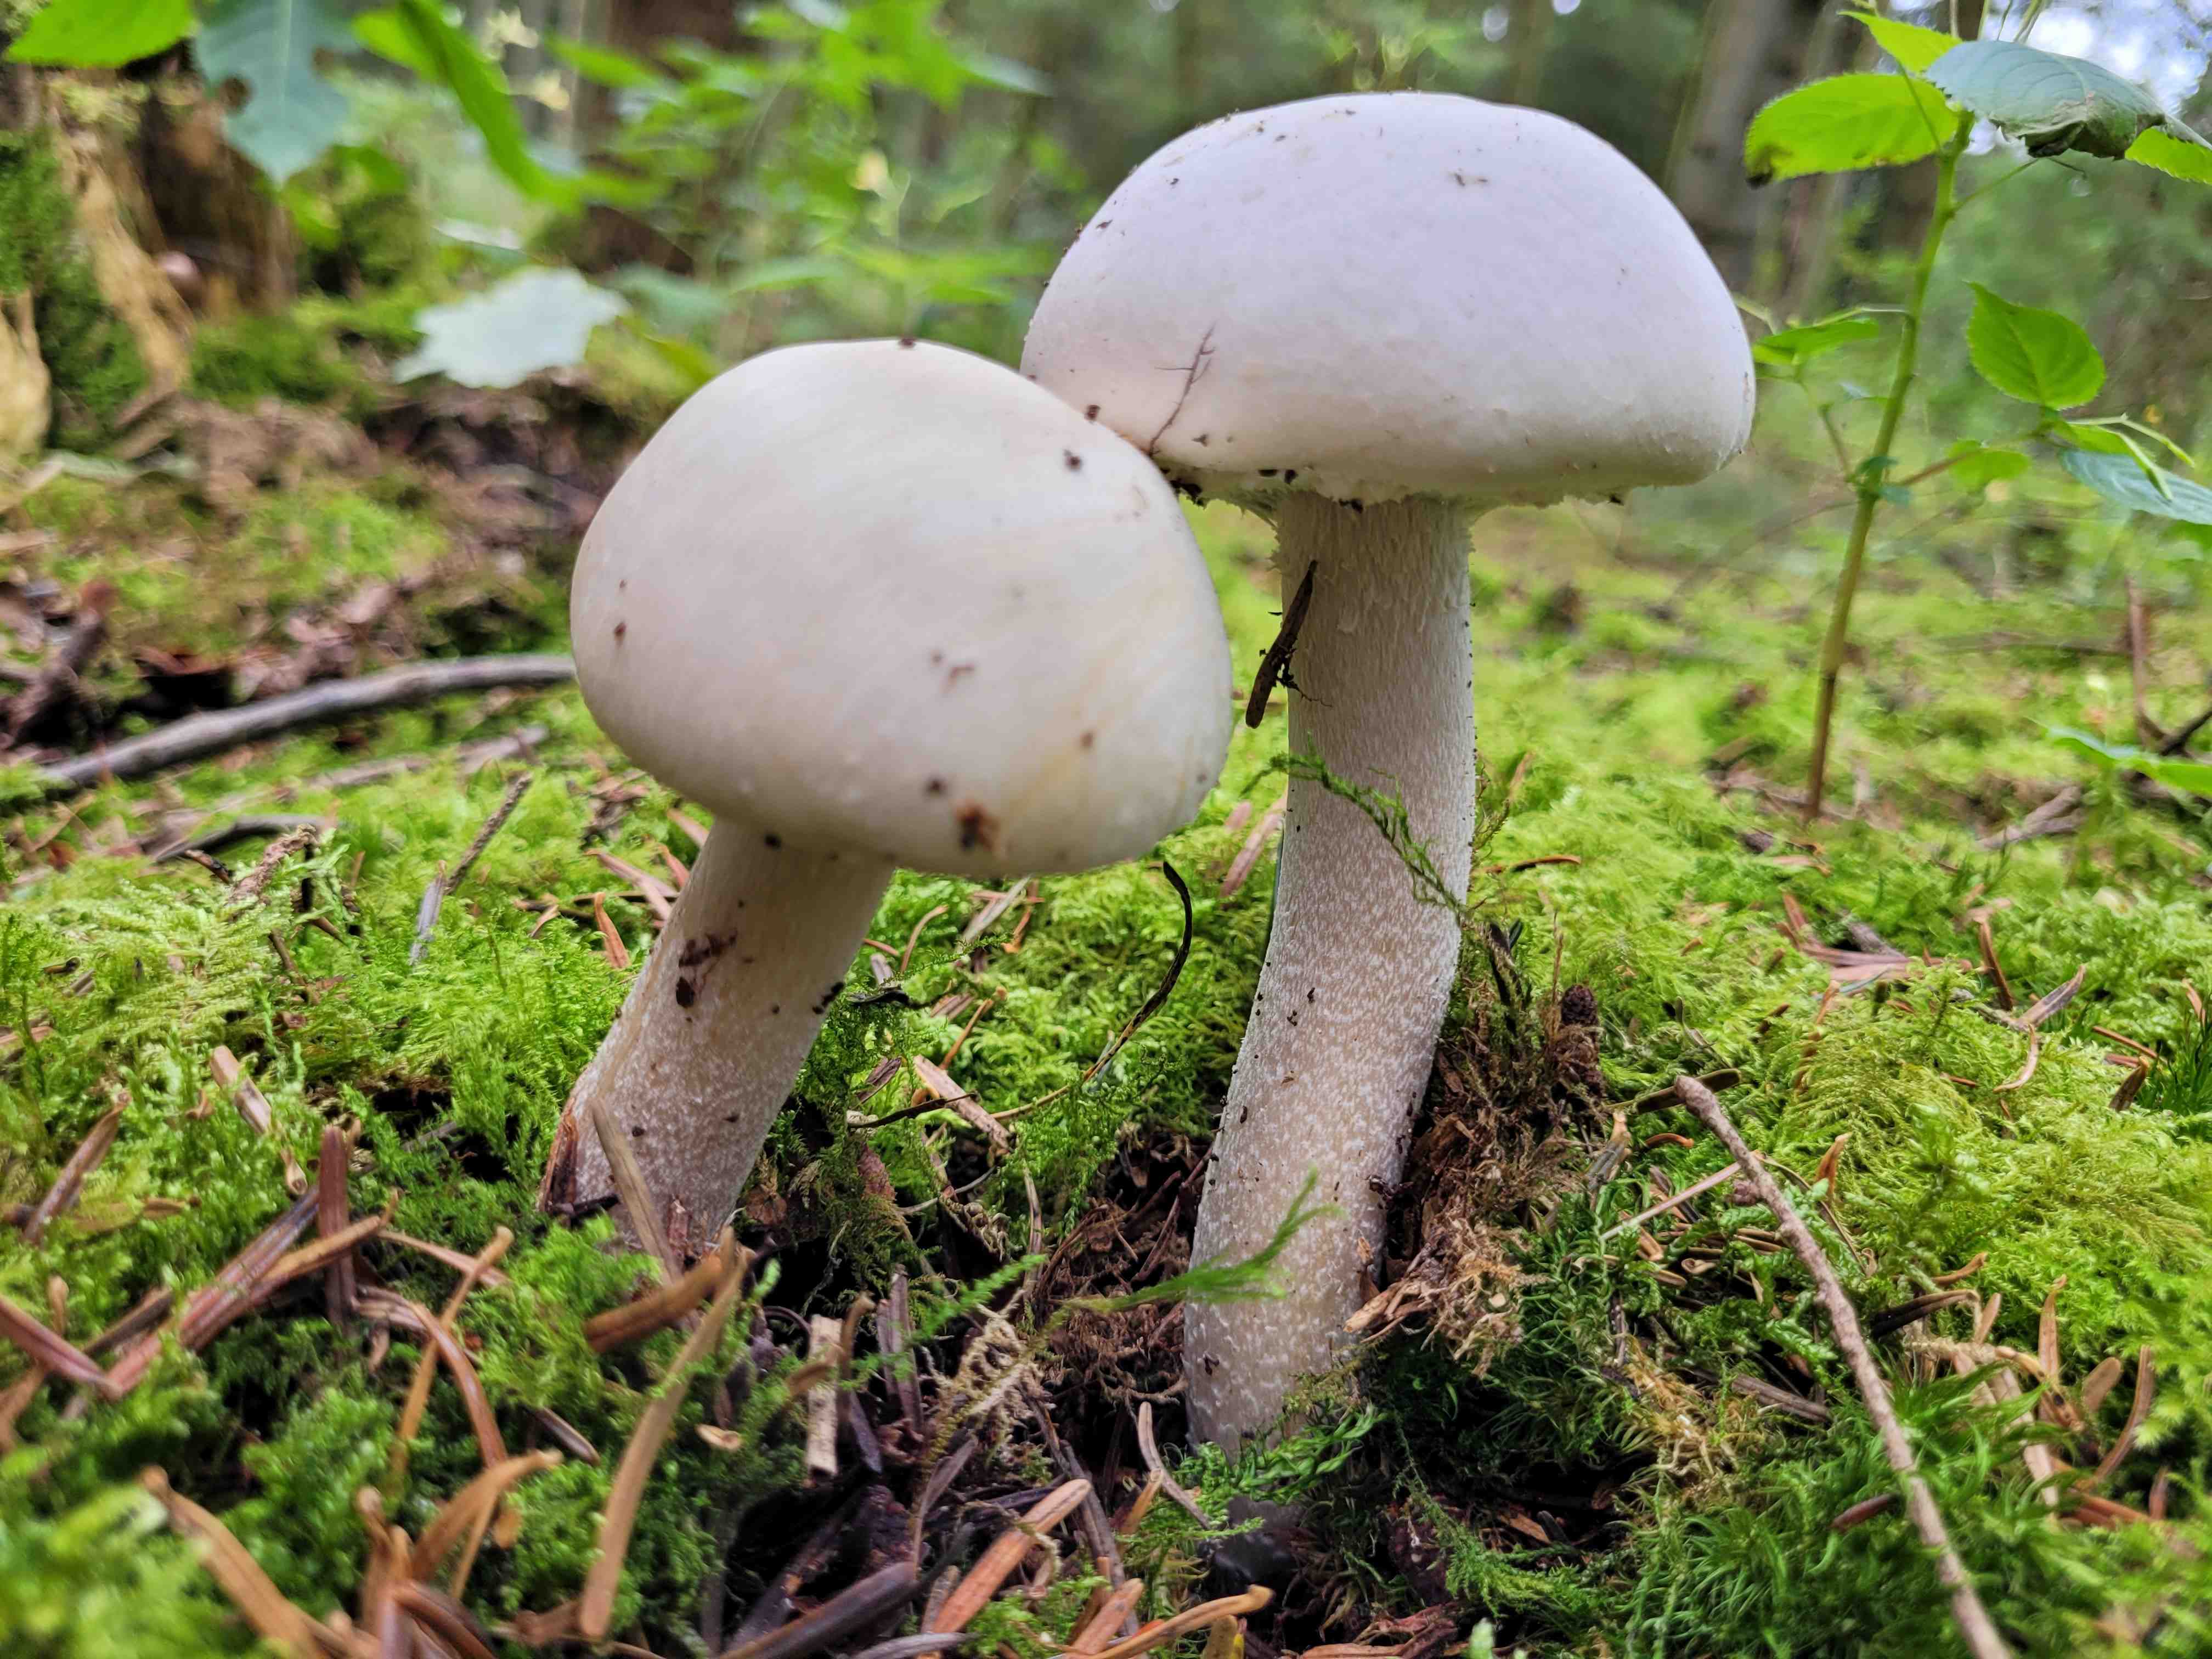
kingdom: Fungi
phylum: Basidiomycota
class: Agaricomycetes
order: Agaricales
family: Agaricaceae
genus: Agaricus
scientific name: Agaricus
